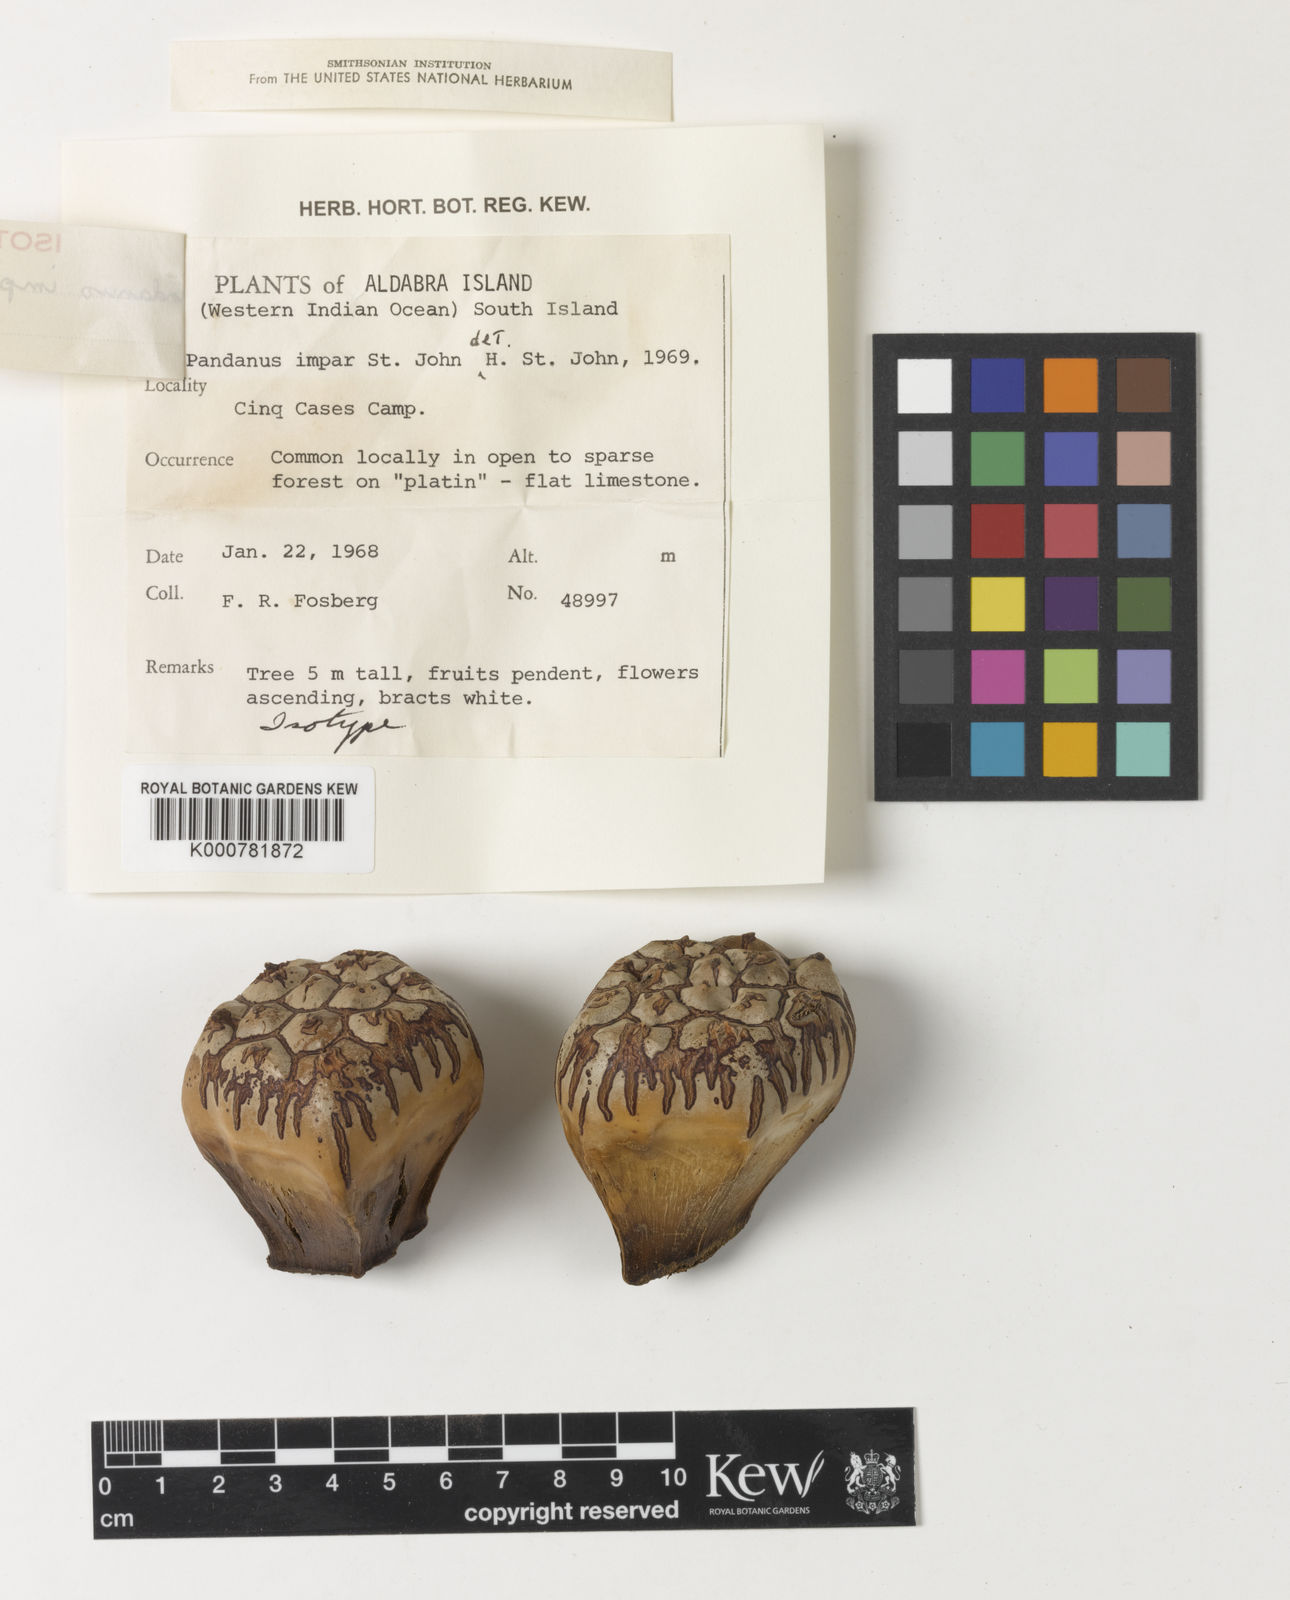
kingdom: Plantae
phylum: Tracheophyta
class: Liliopsida
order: Pandanales
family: Pandanaceae
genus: Pandanus
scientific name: Pandanus odorifer
